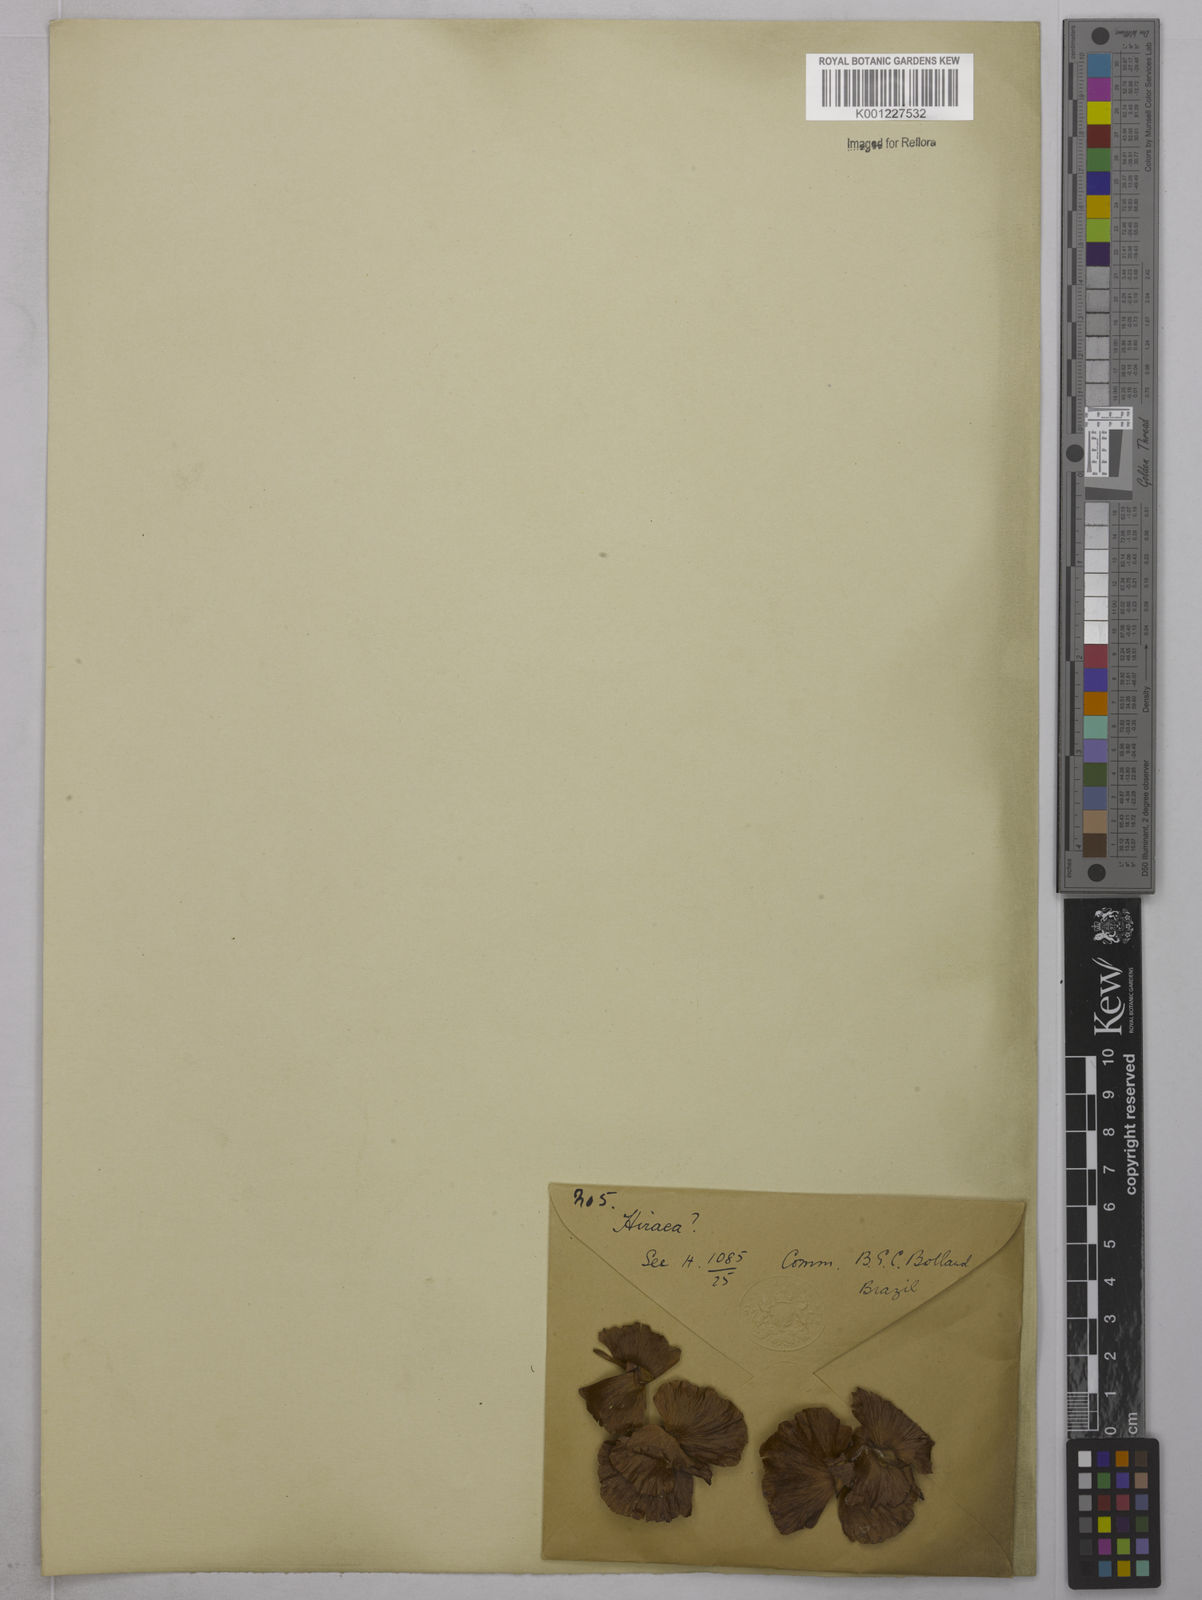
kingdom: Plantae
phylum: Tracheophyta
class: Magnoliopsida
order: Malpighiales
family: Malpighiaceae
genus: Hiraea
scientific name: Hiraea
